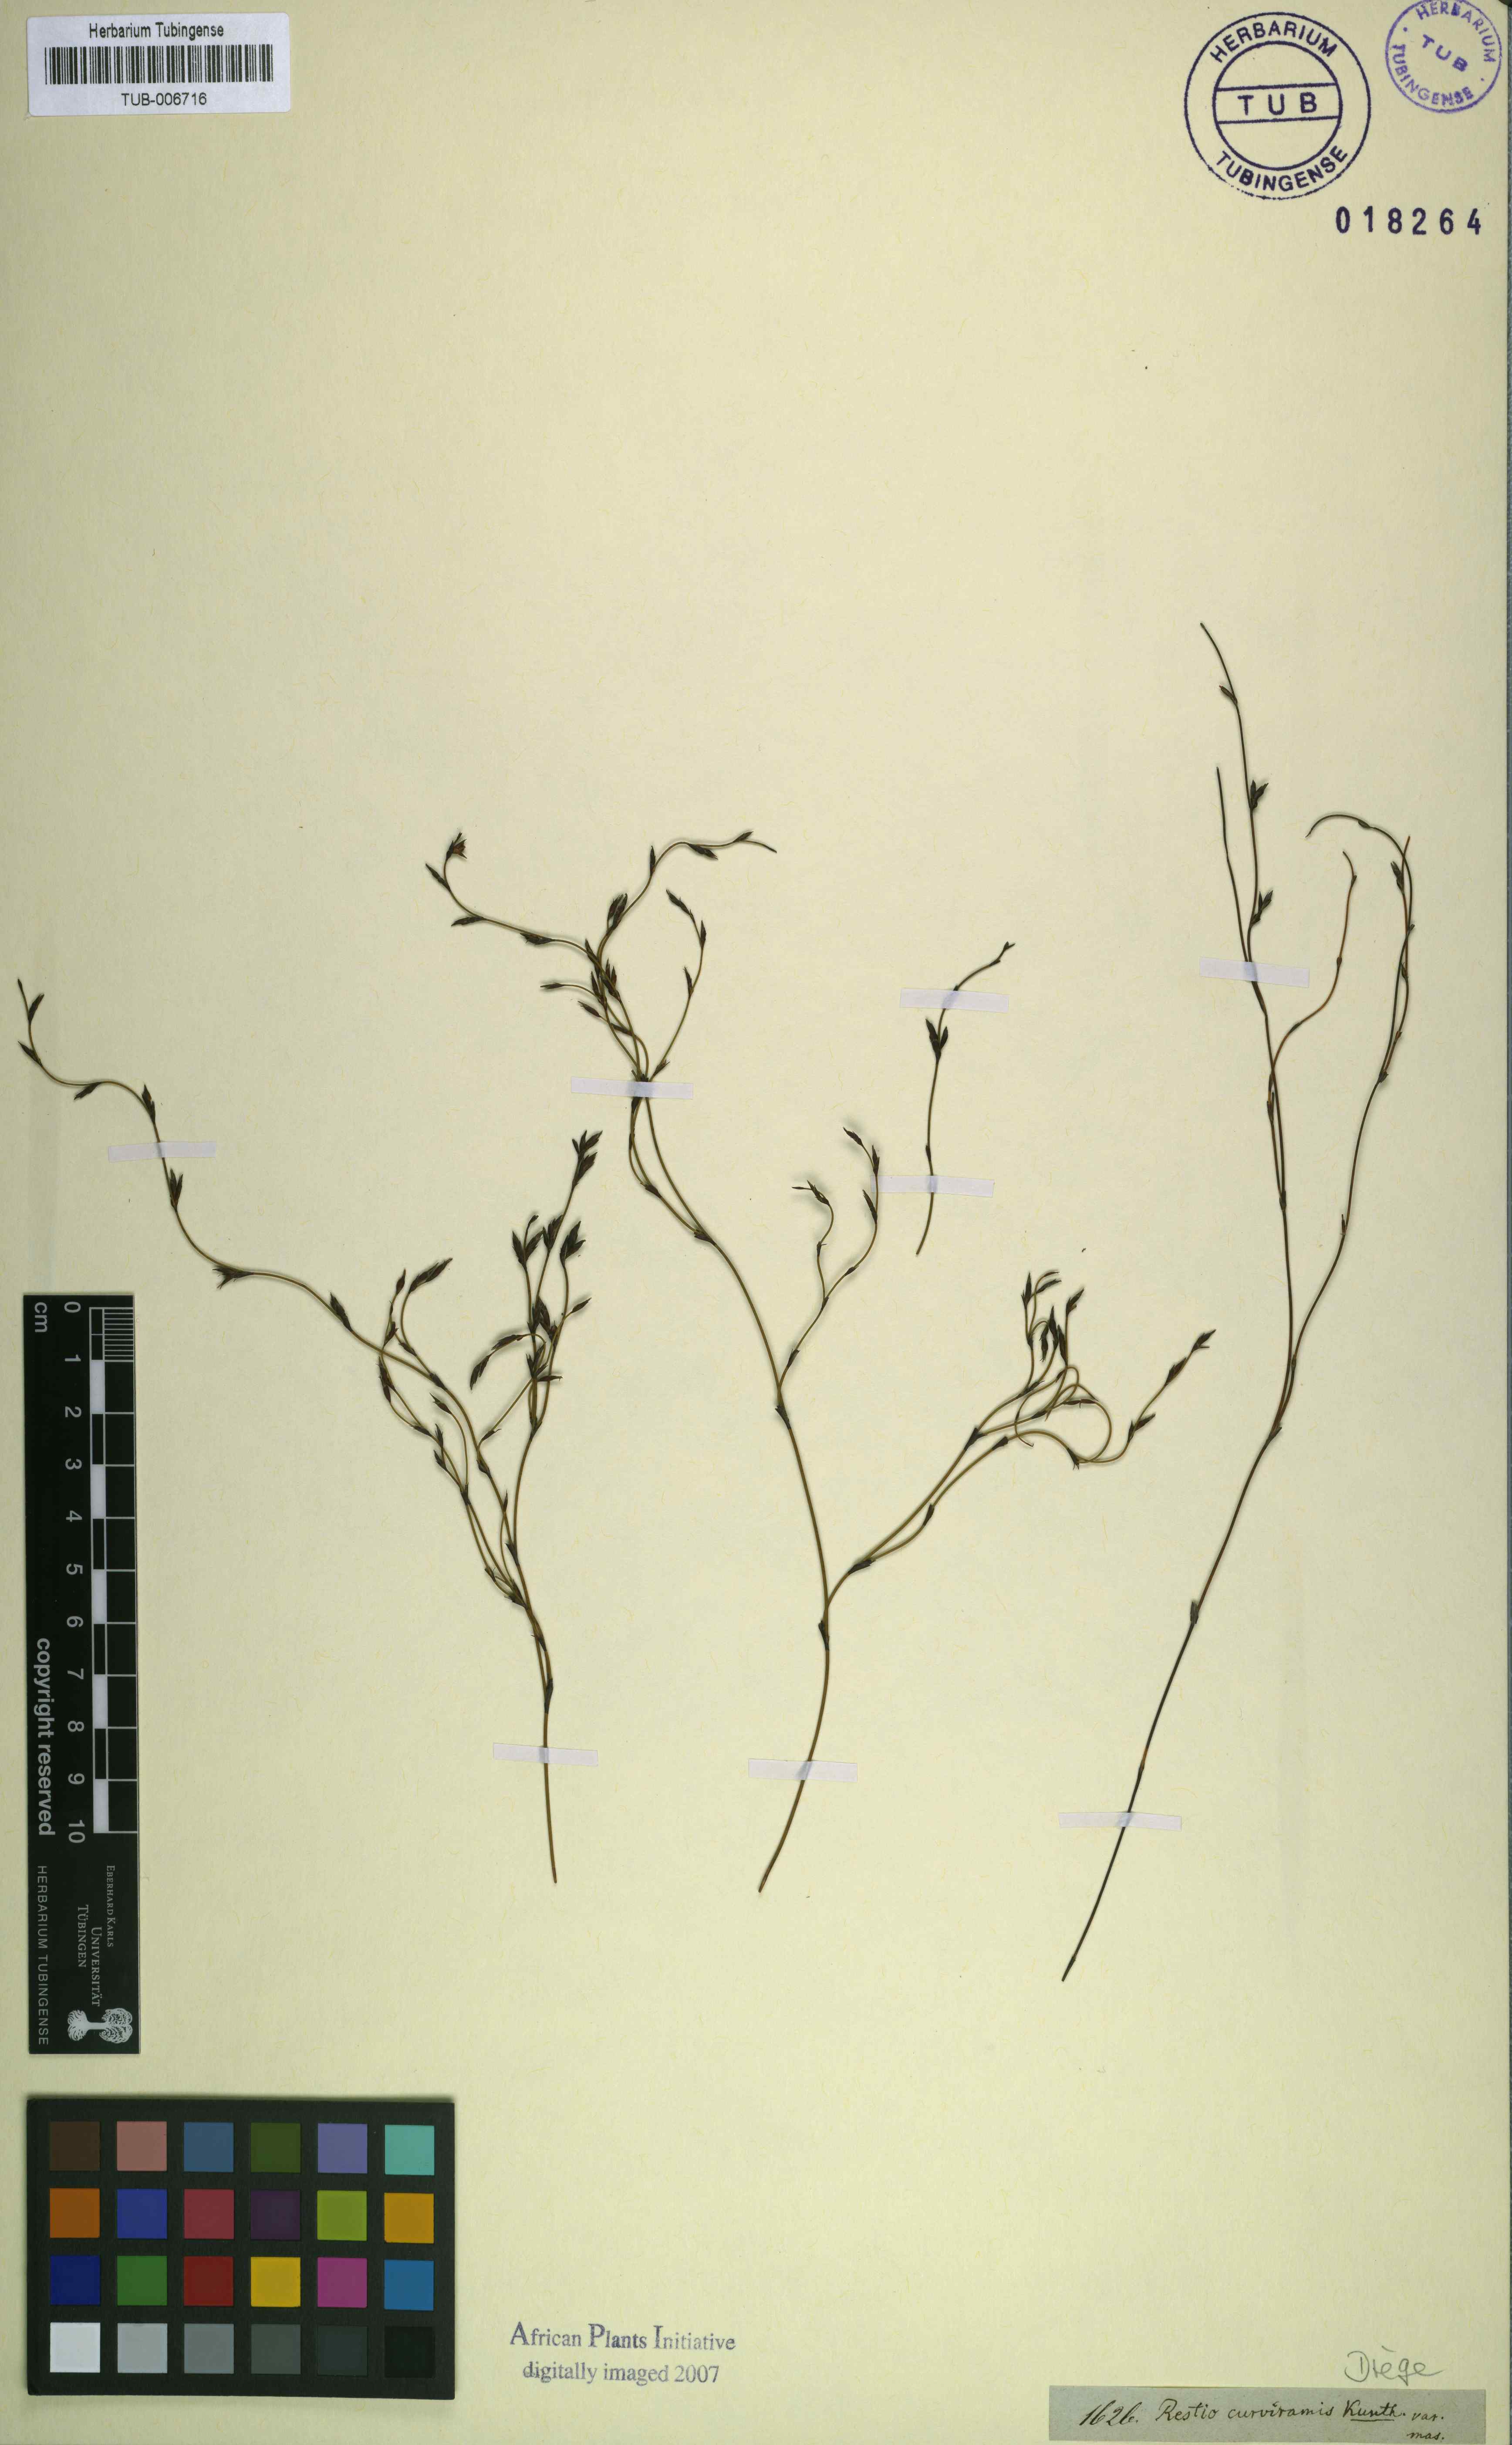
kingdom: Plantae
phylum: Tracheophyta
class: Liliopsida
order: Poales
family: Restionaceae
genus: Restio
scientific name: Restio curviramis
